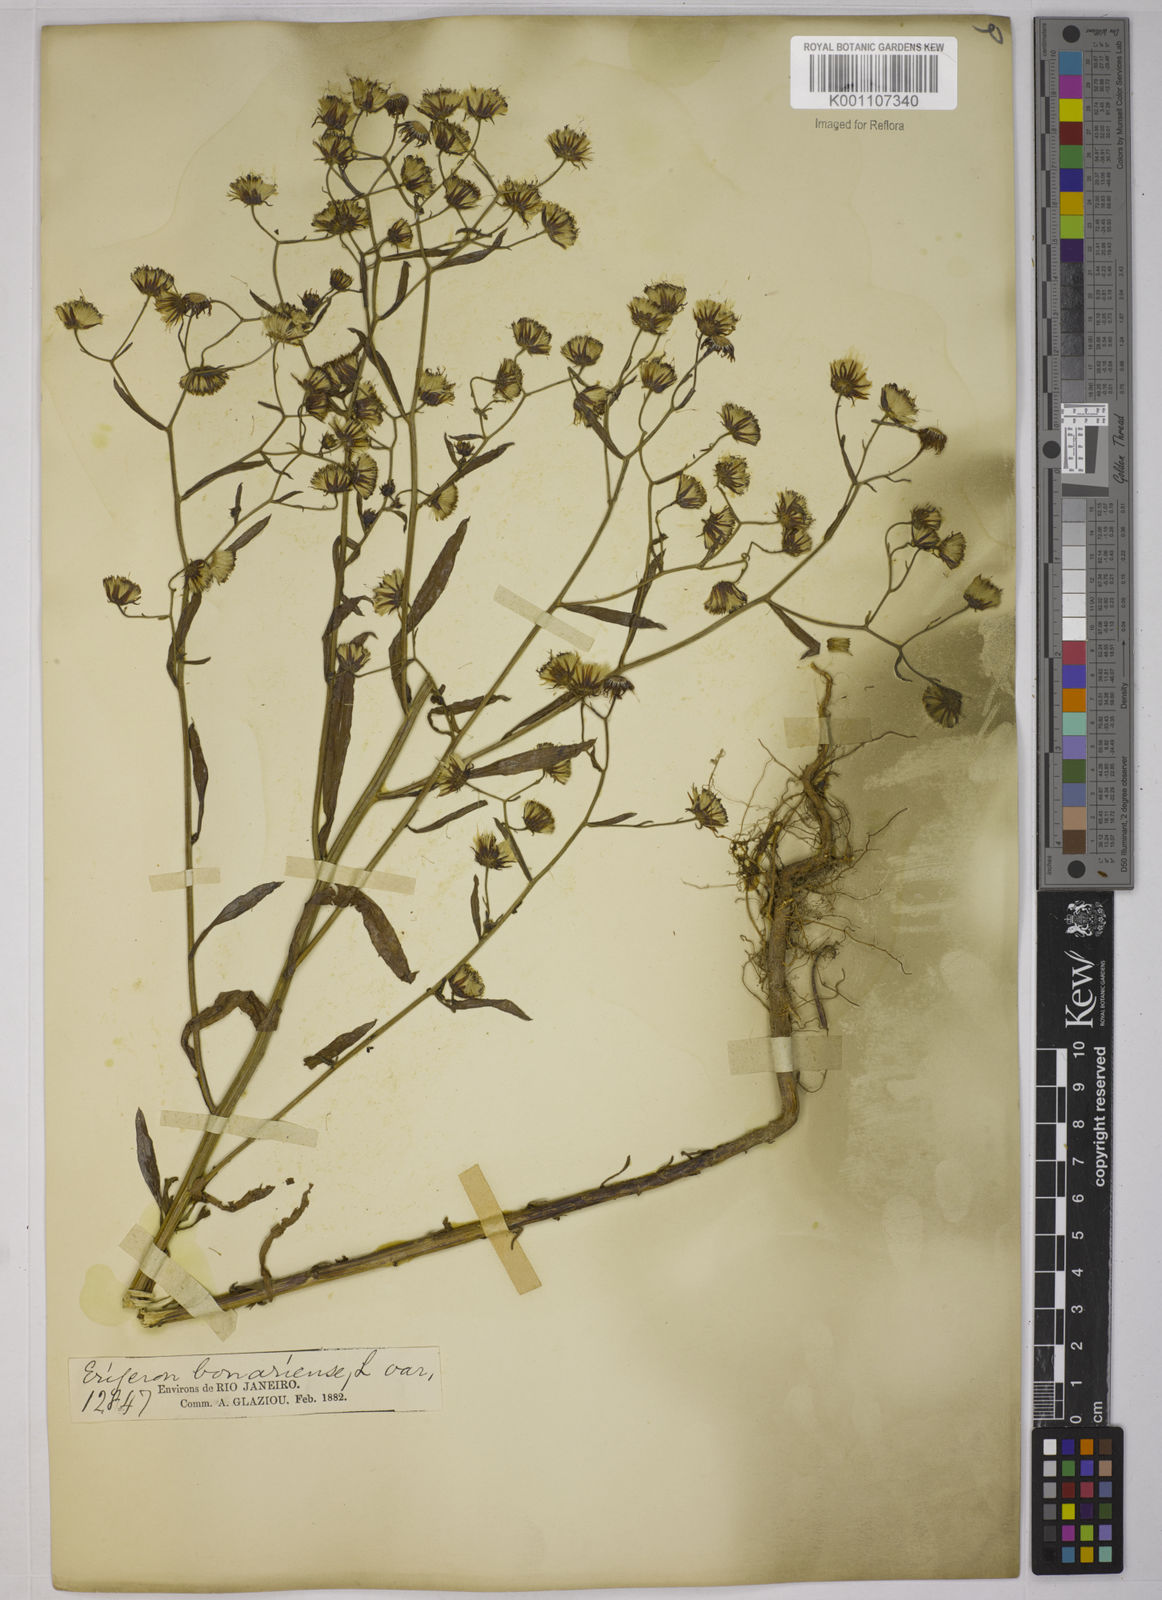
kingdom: Plantae
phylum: Tracheophyta
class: Magnoliopsida
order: Asterales
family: Asteraceae
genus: Erigeron
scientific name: Erigeron floribundus
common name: Bilbao fleabane
